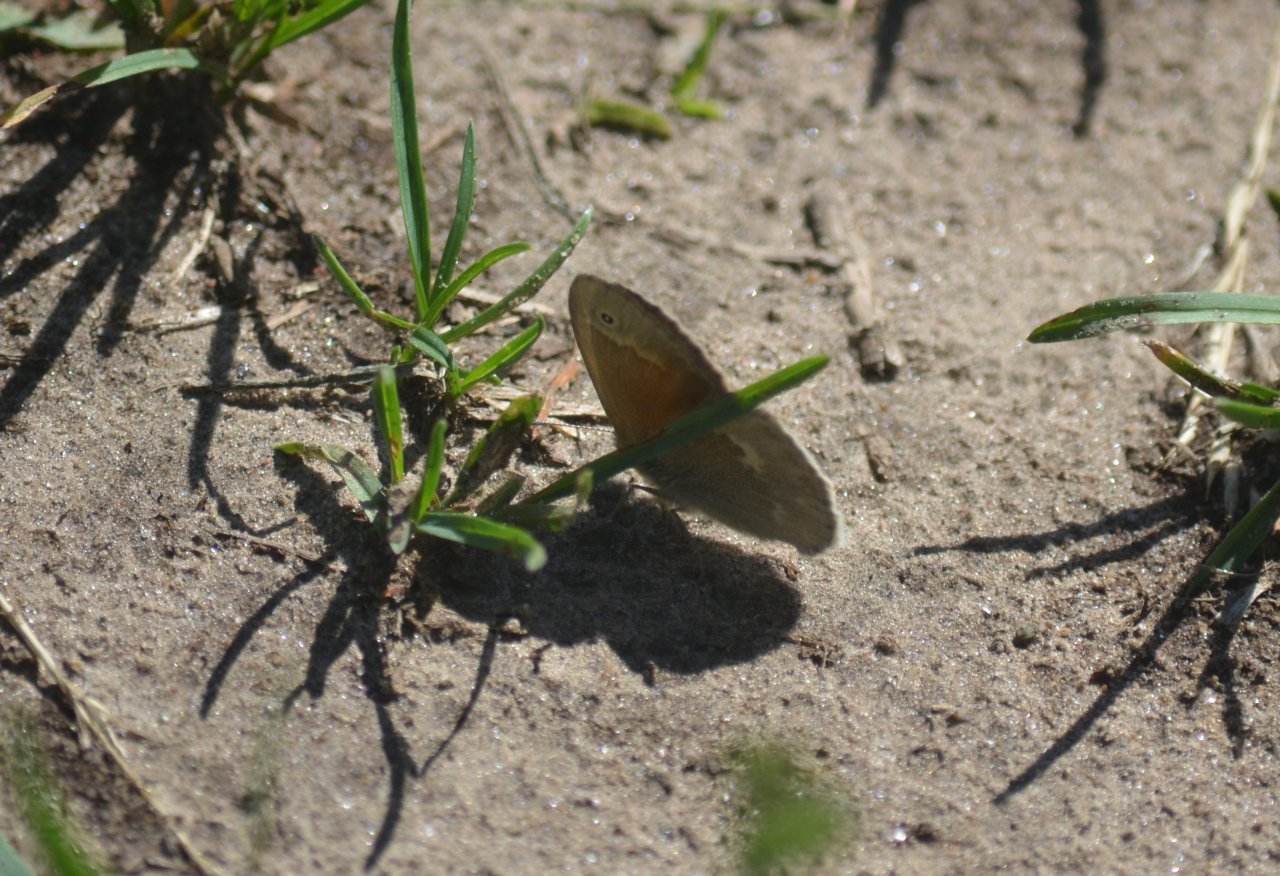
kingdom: Animalia
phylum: Arthropoda
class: Insecta
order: Lepidoptera
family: Nymphalidae
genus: Coenonympha
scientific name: Coenonympha tullia
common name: Large Heath
